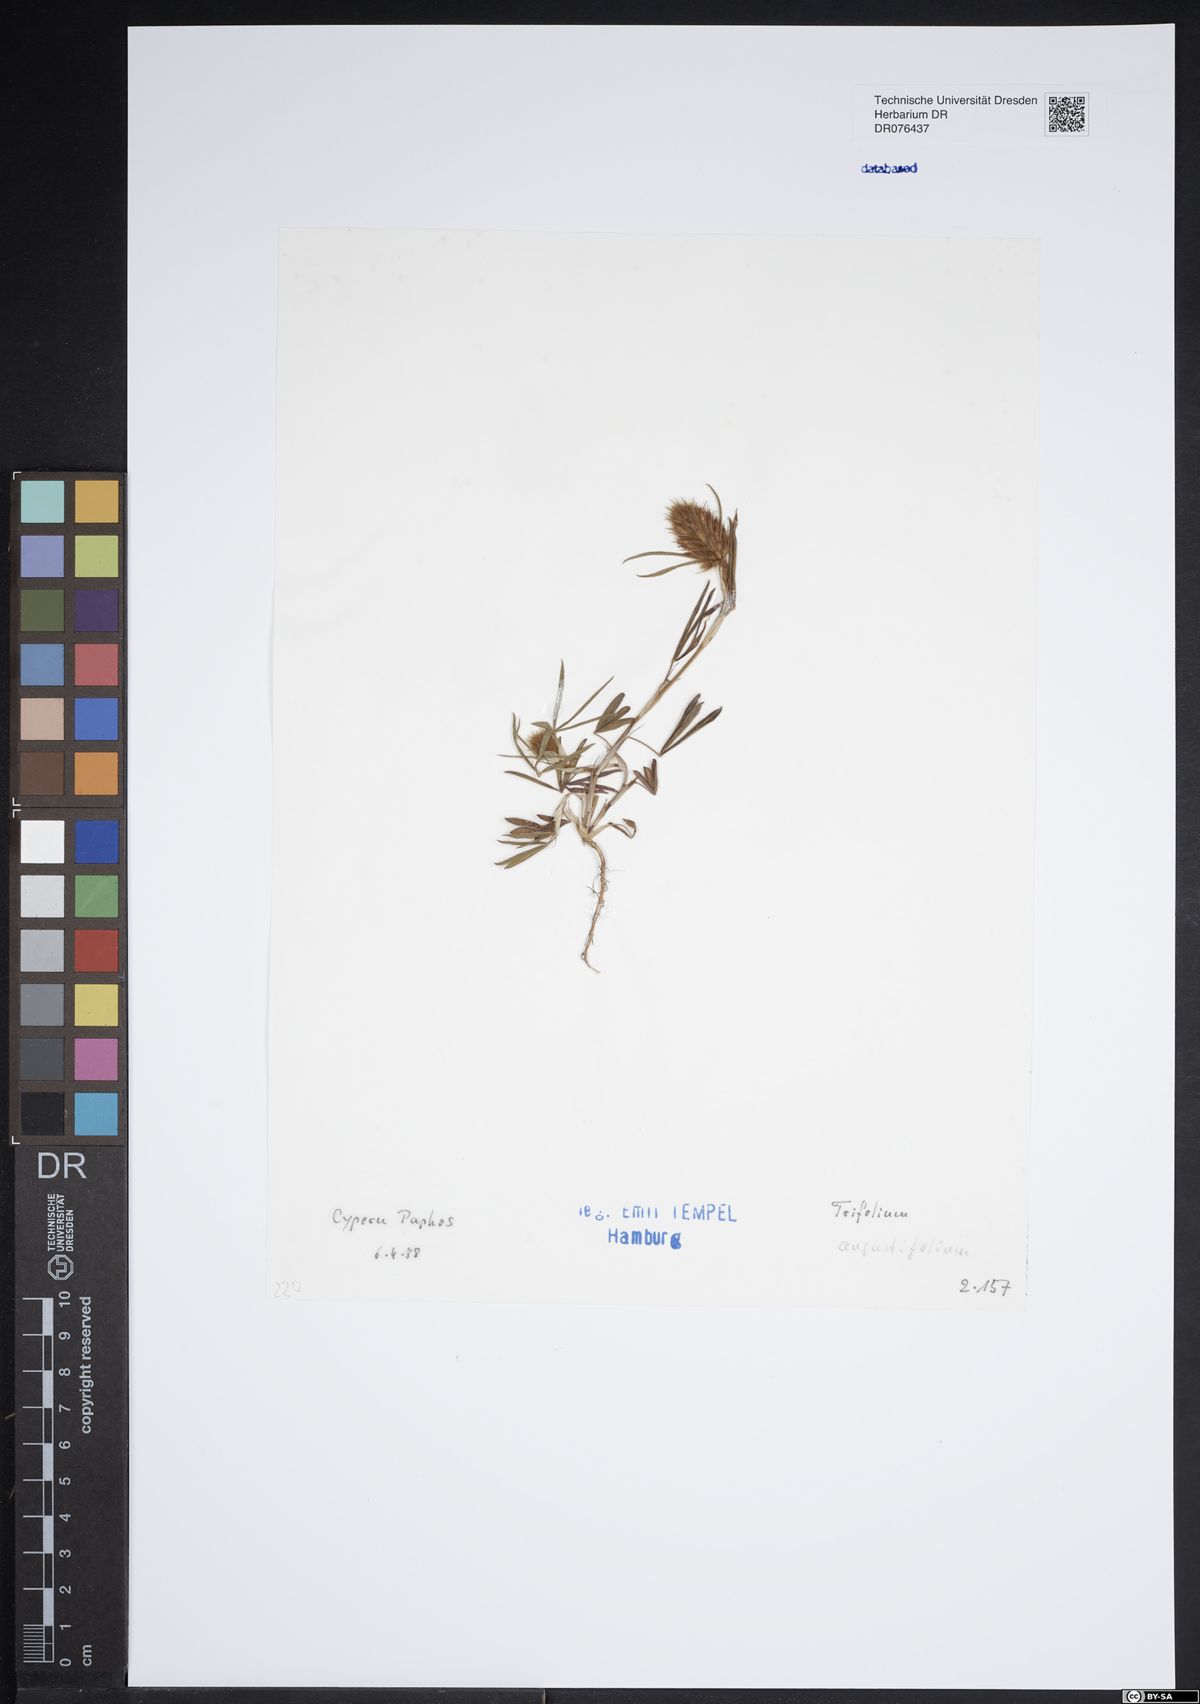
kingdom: Plantae
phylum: Tracheophyta
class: Magnoliopsida
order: Fabales
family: Fabaceae
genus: Trifolium
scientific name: Trifolium angustifolium
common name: Narrow clover
